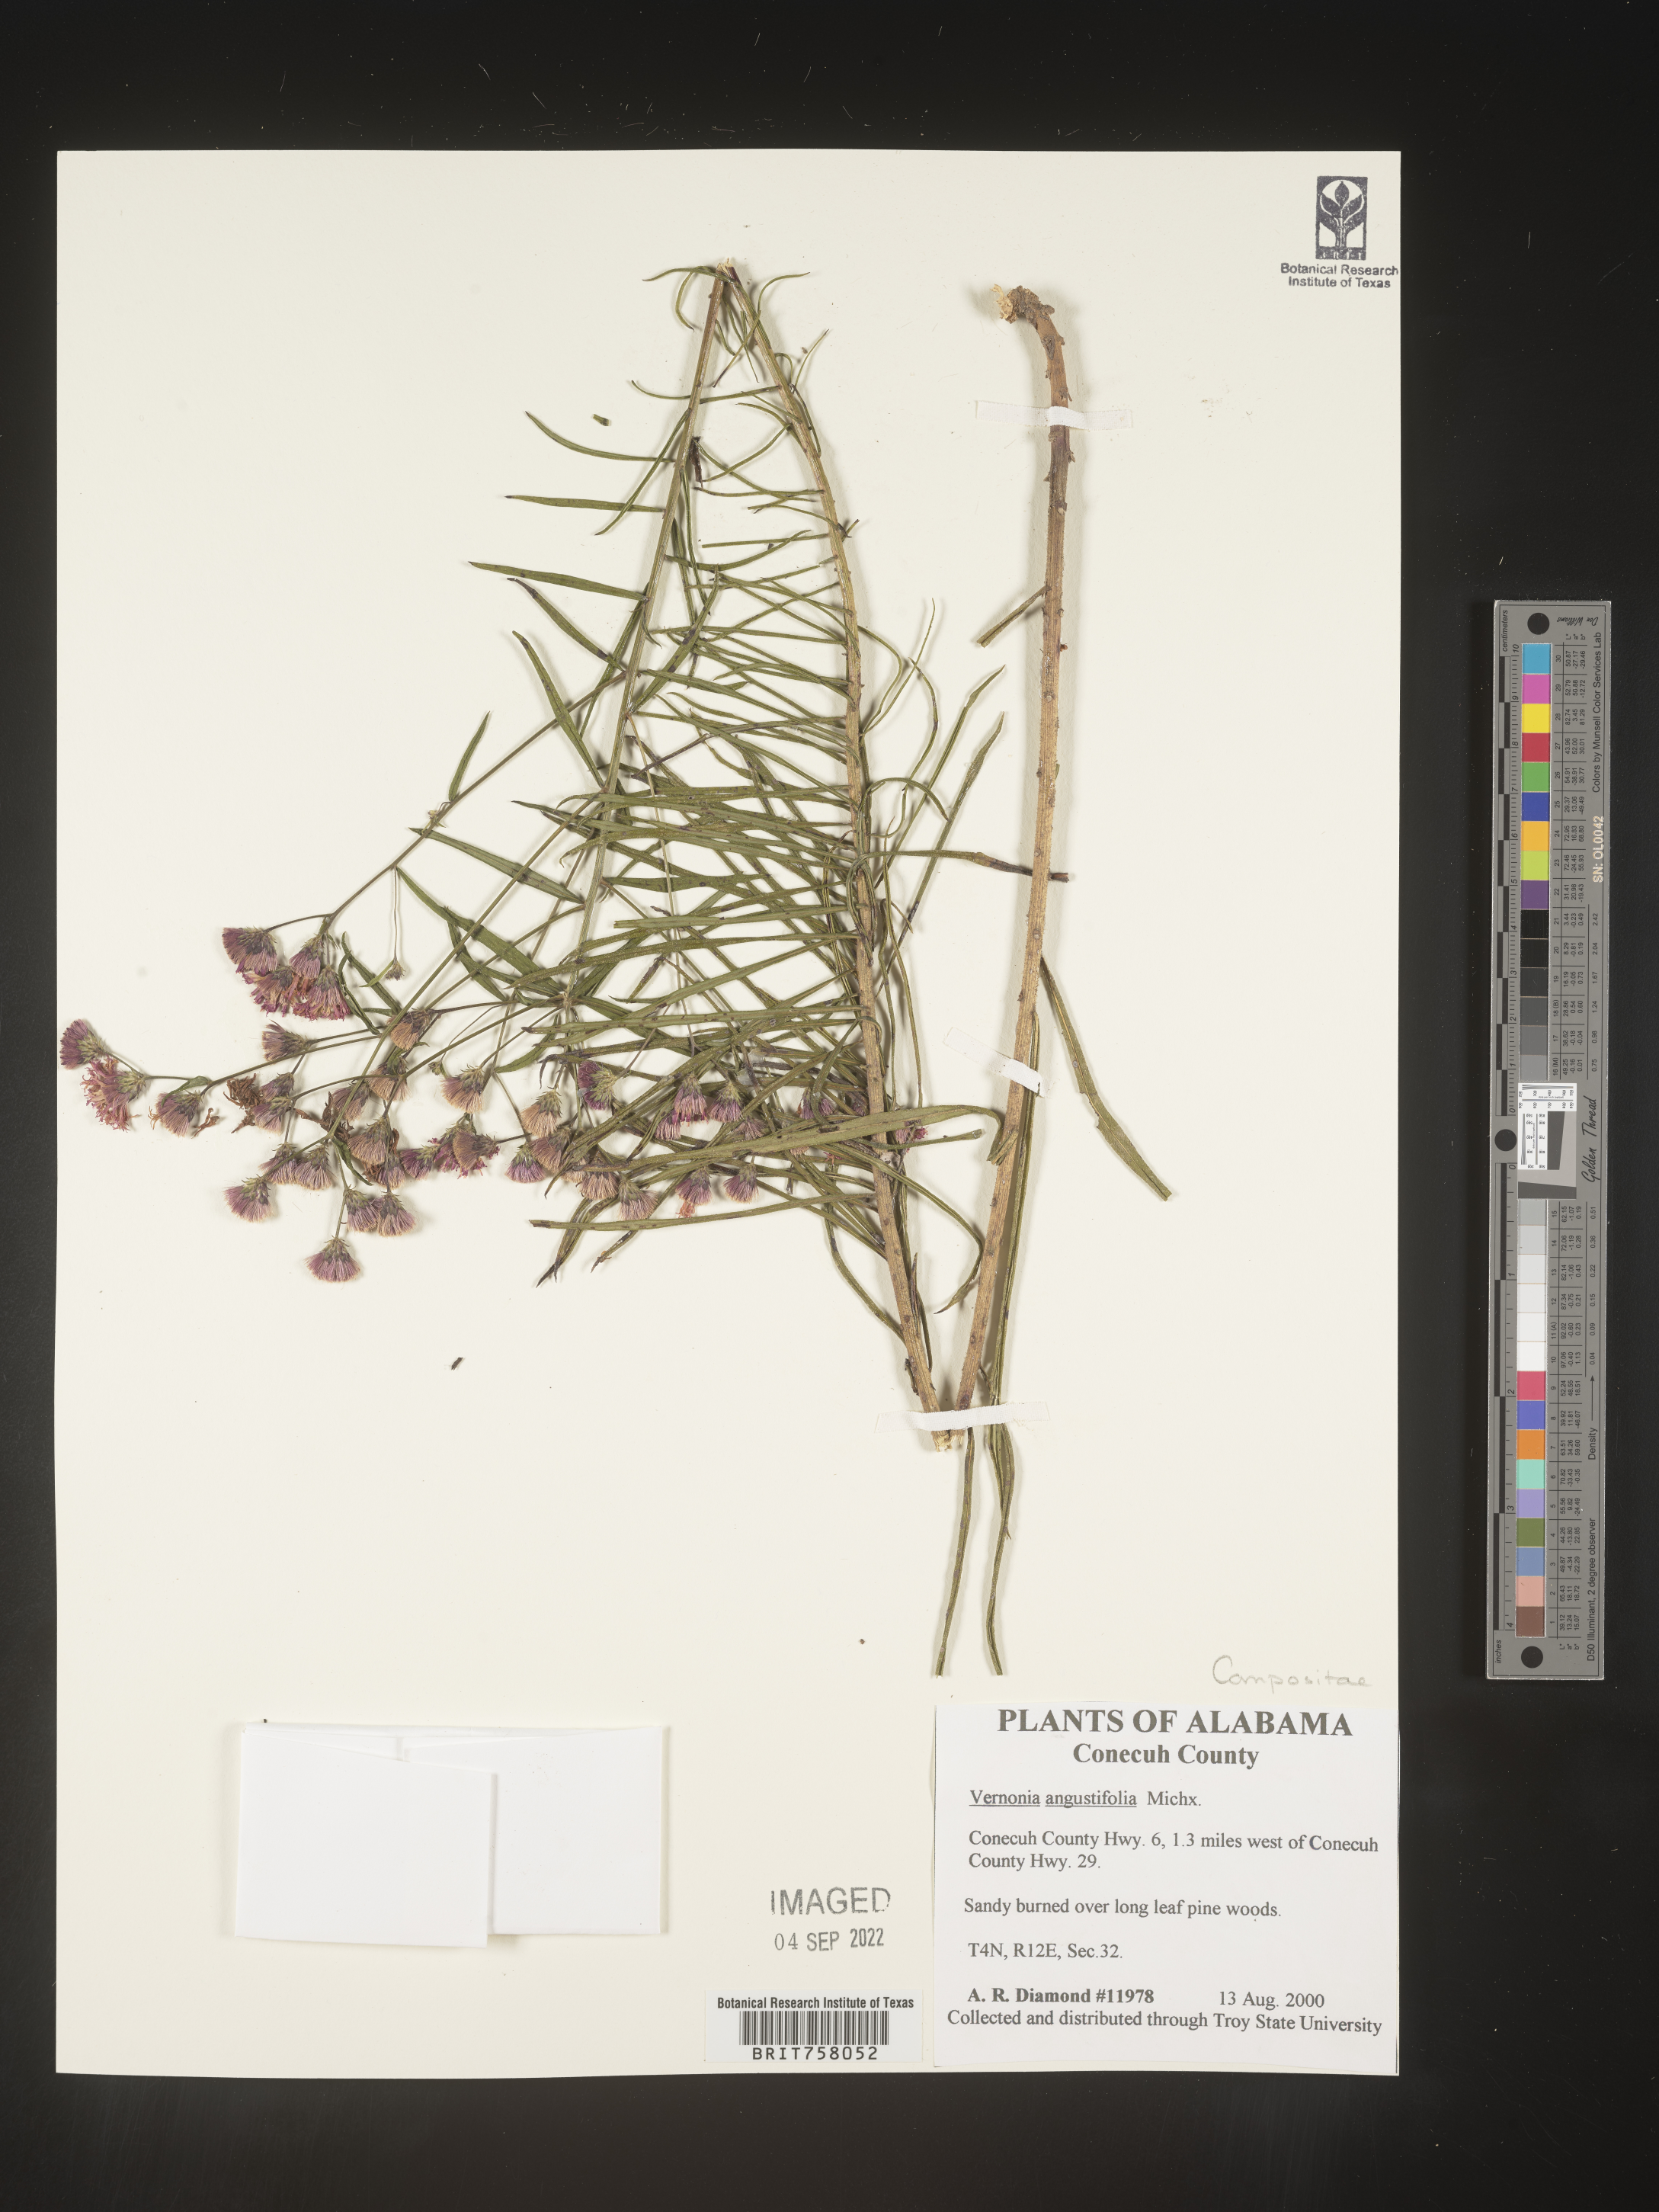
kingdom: Plantae
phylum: Tracheophyta
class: Magnoliopsida
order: Asterales
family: Asteraceae
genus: Vernonia
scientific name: Vernonia angustifolia
